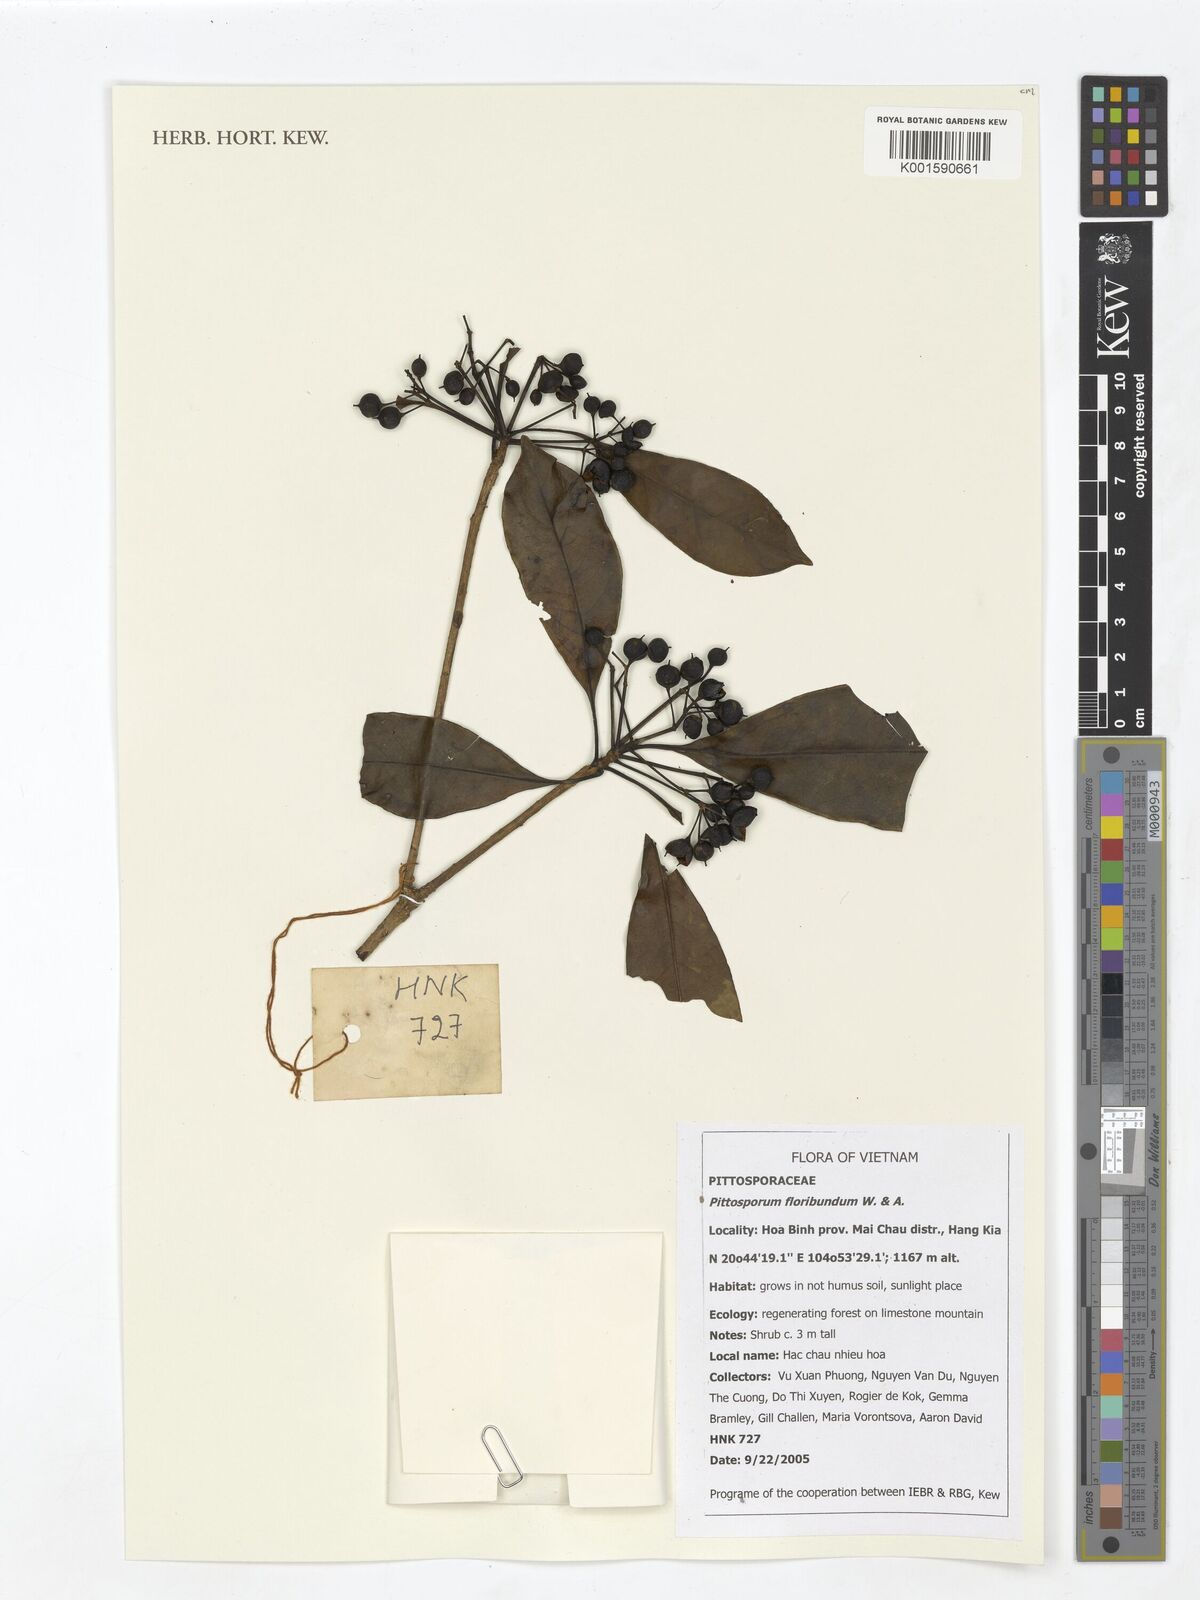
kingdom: Plantae
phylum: Tracheophyta
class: Magnoliopsida
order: Apiales
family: Pittosporaceae
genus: Pittosporum
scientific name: Pittosporum densiflorum
